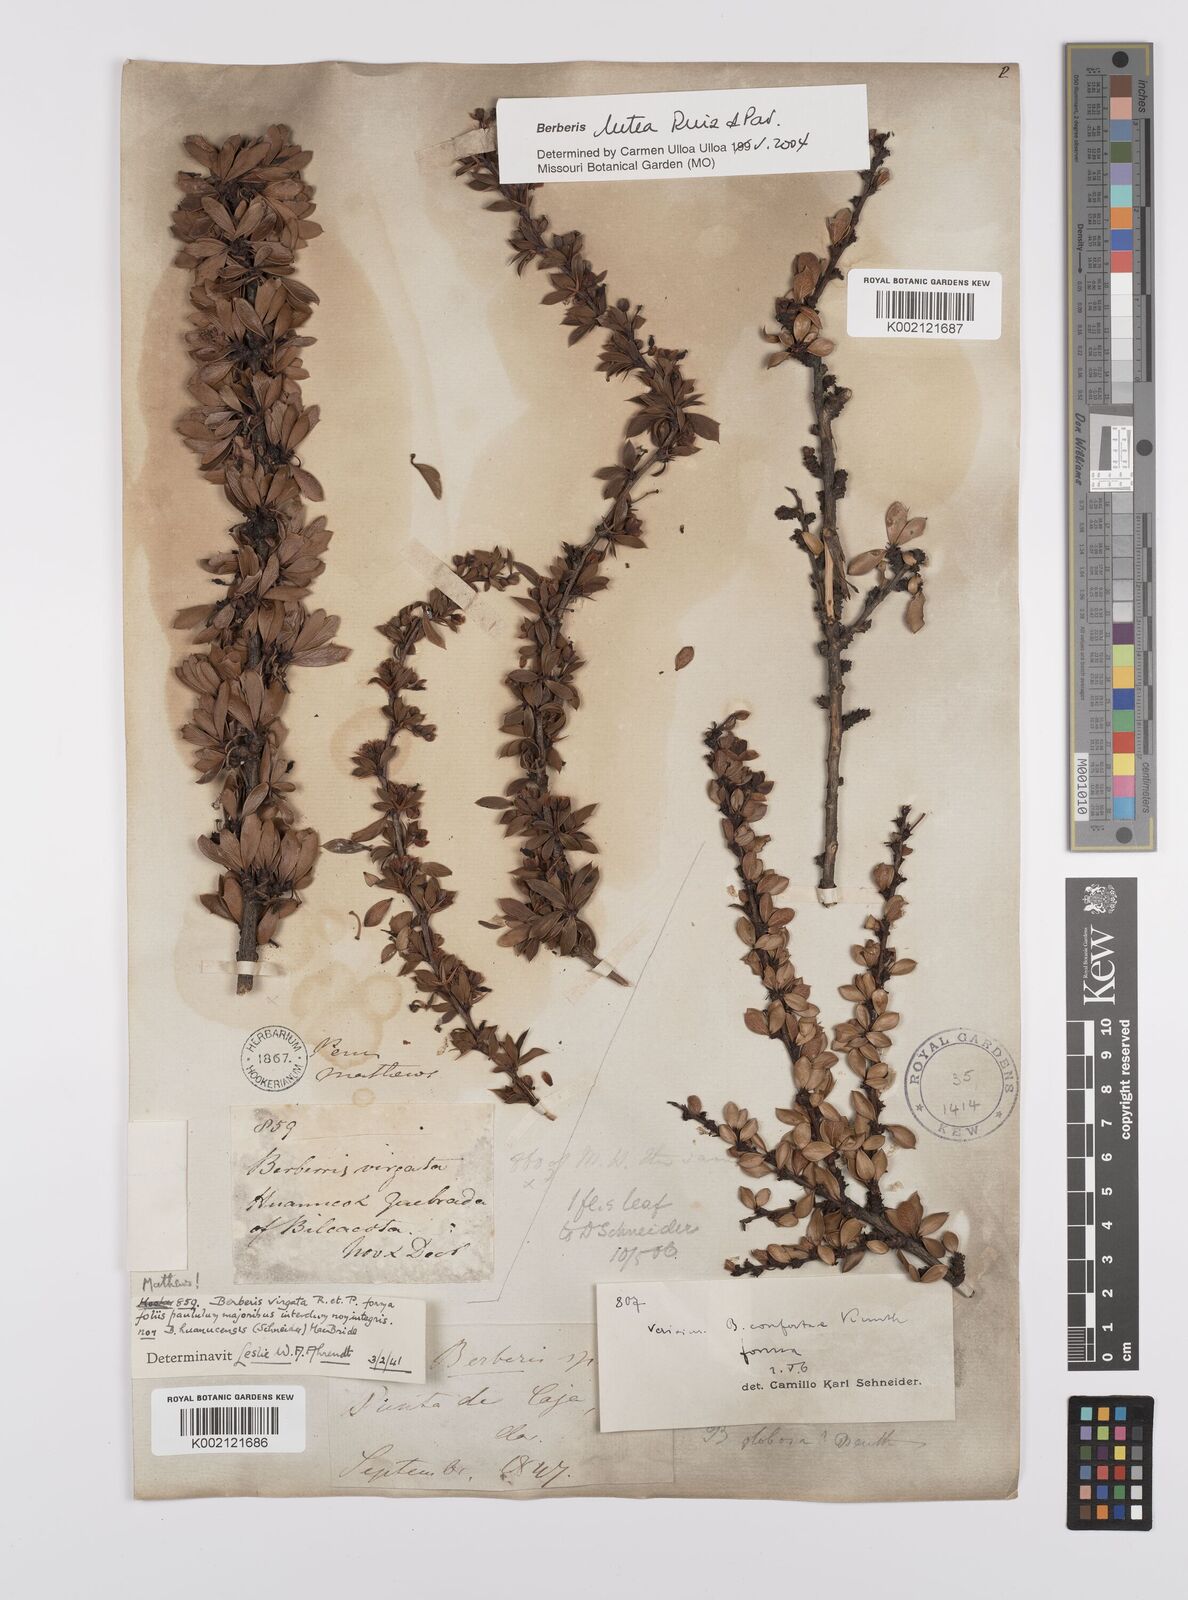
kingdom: Plantae
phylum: Tracheophyta
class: Magnoliopsida
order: Ranunculales
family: Berberidaceae
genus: Berberis
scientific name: Berberis boliviana
